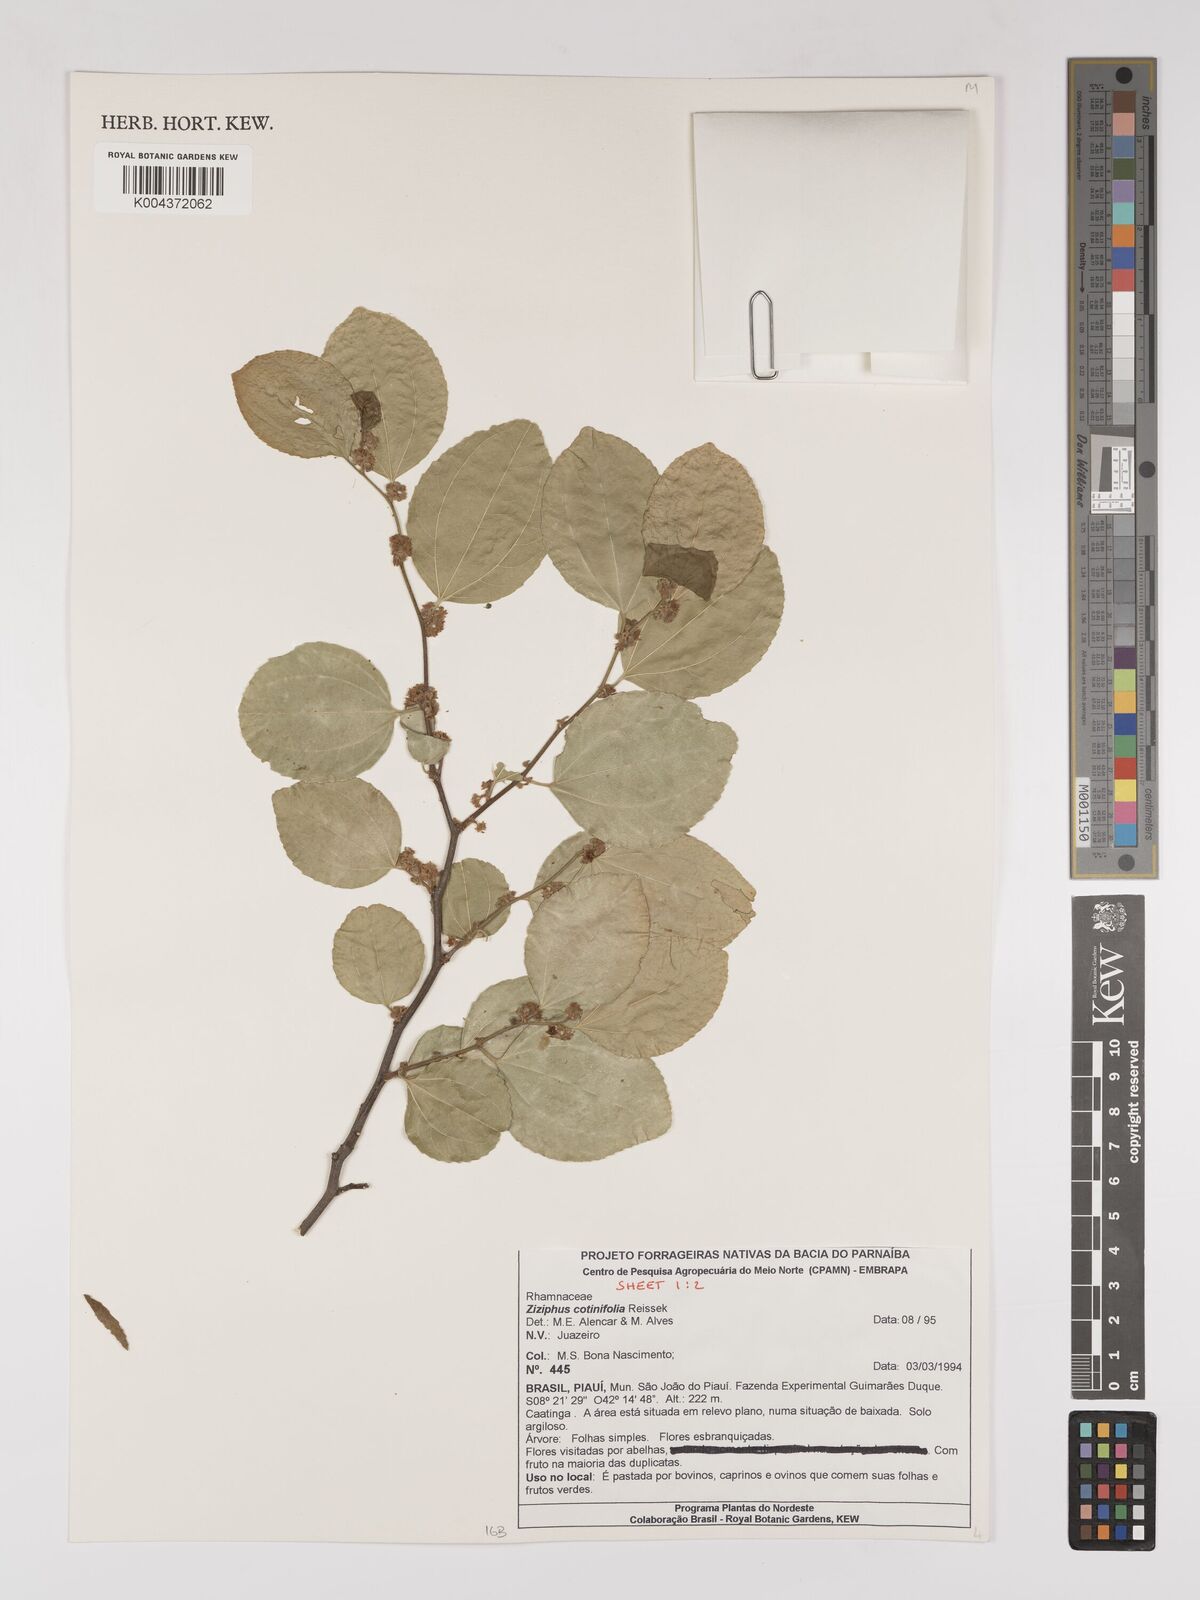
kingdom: Plantae
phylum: Tracheophyta
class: Magnoliopsida
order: Rosales
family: Rhamnaceae
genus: Sarcomphalus
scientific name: Sarcomphalus cotinifolius
